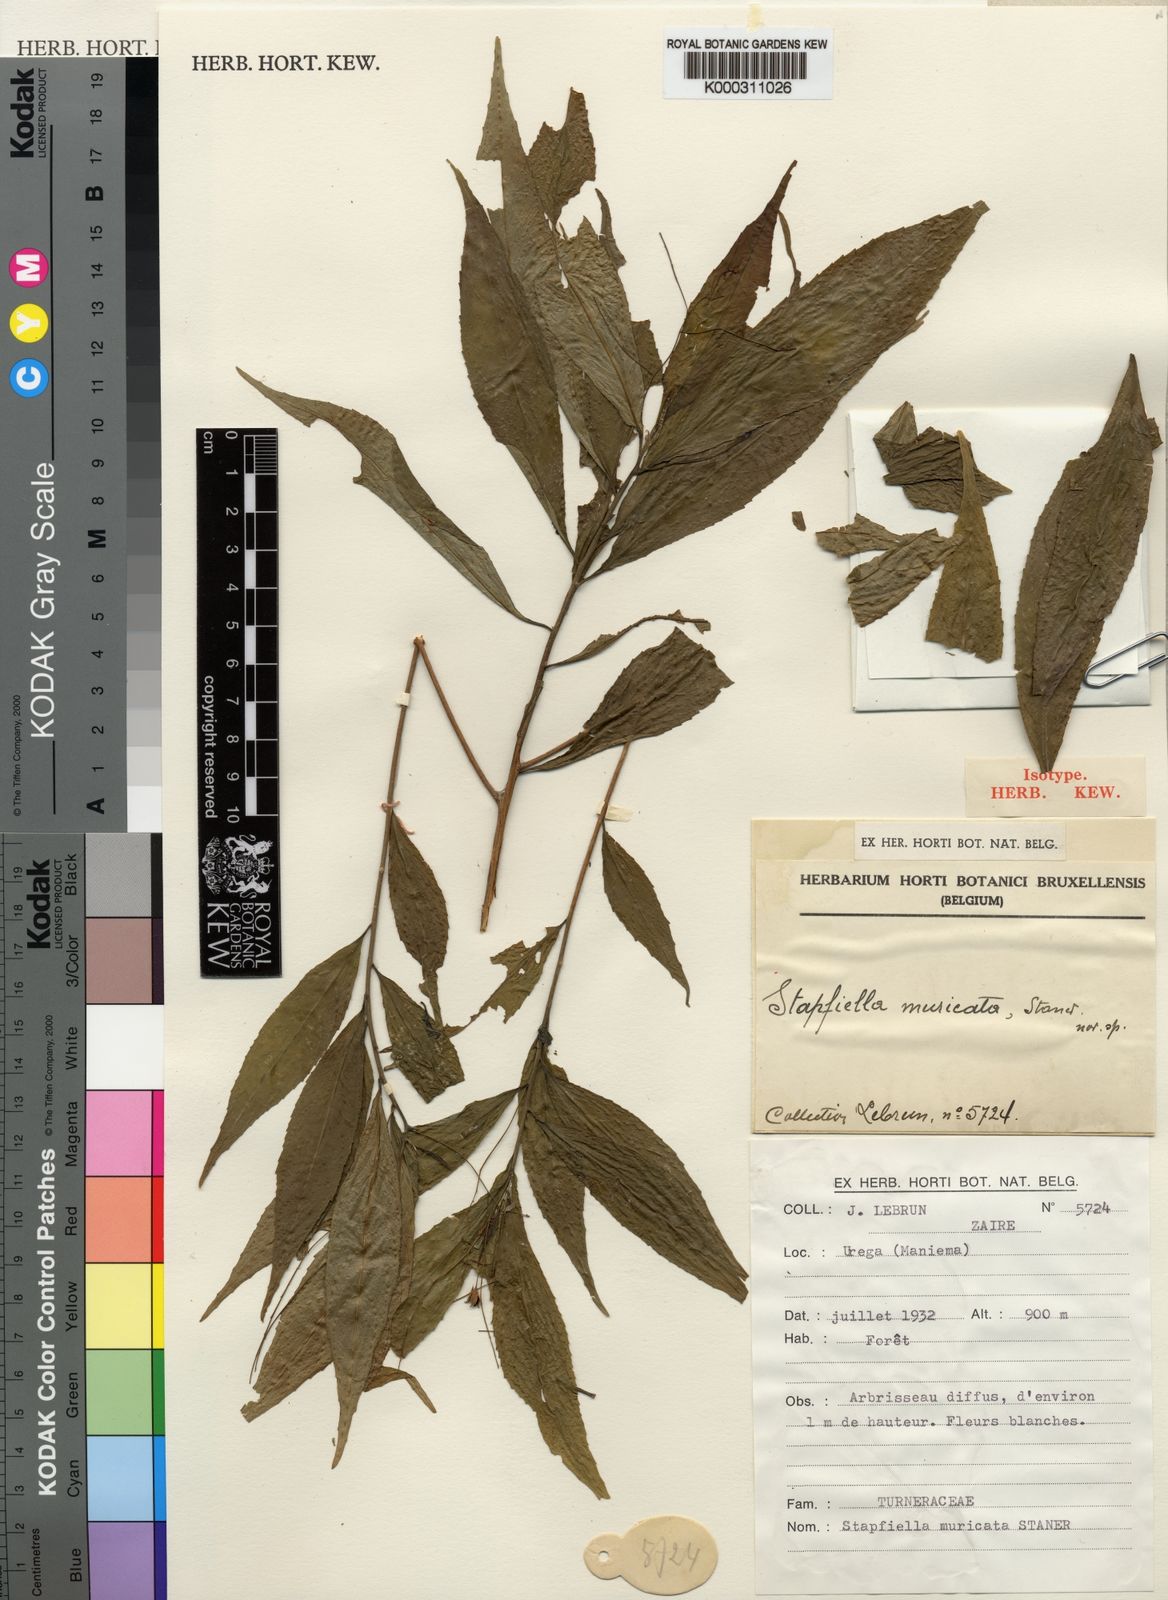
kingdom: Plantae
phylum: Tracheophyta
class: Magnoliopsida
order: Malpighiales
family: Turneraceae
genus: Stapfiella
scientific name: Stapfiella muricata
